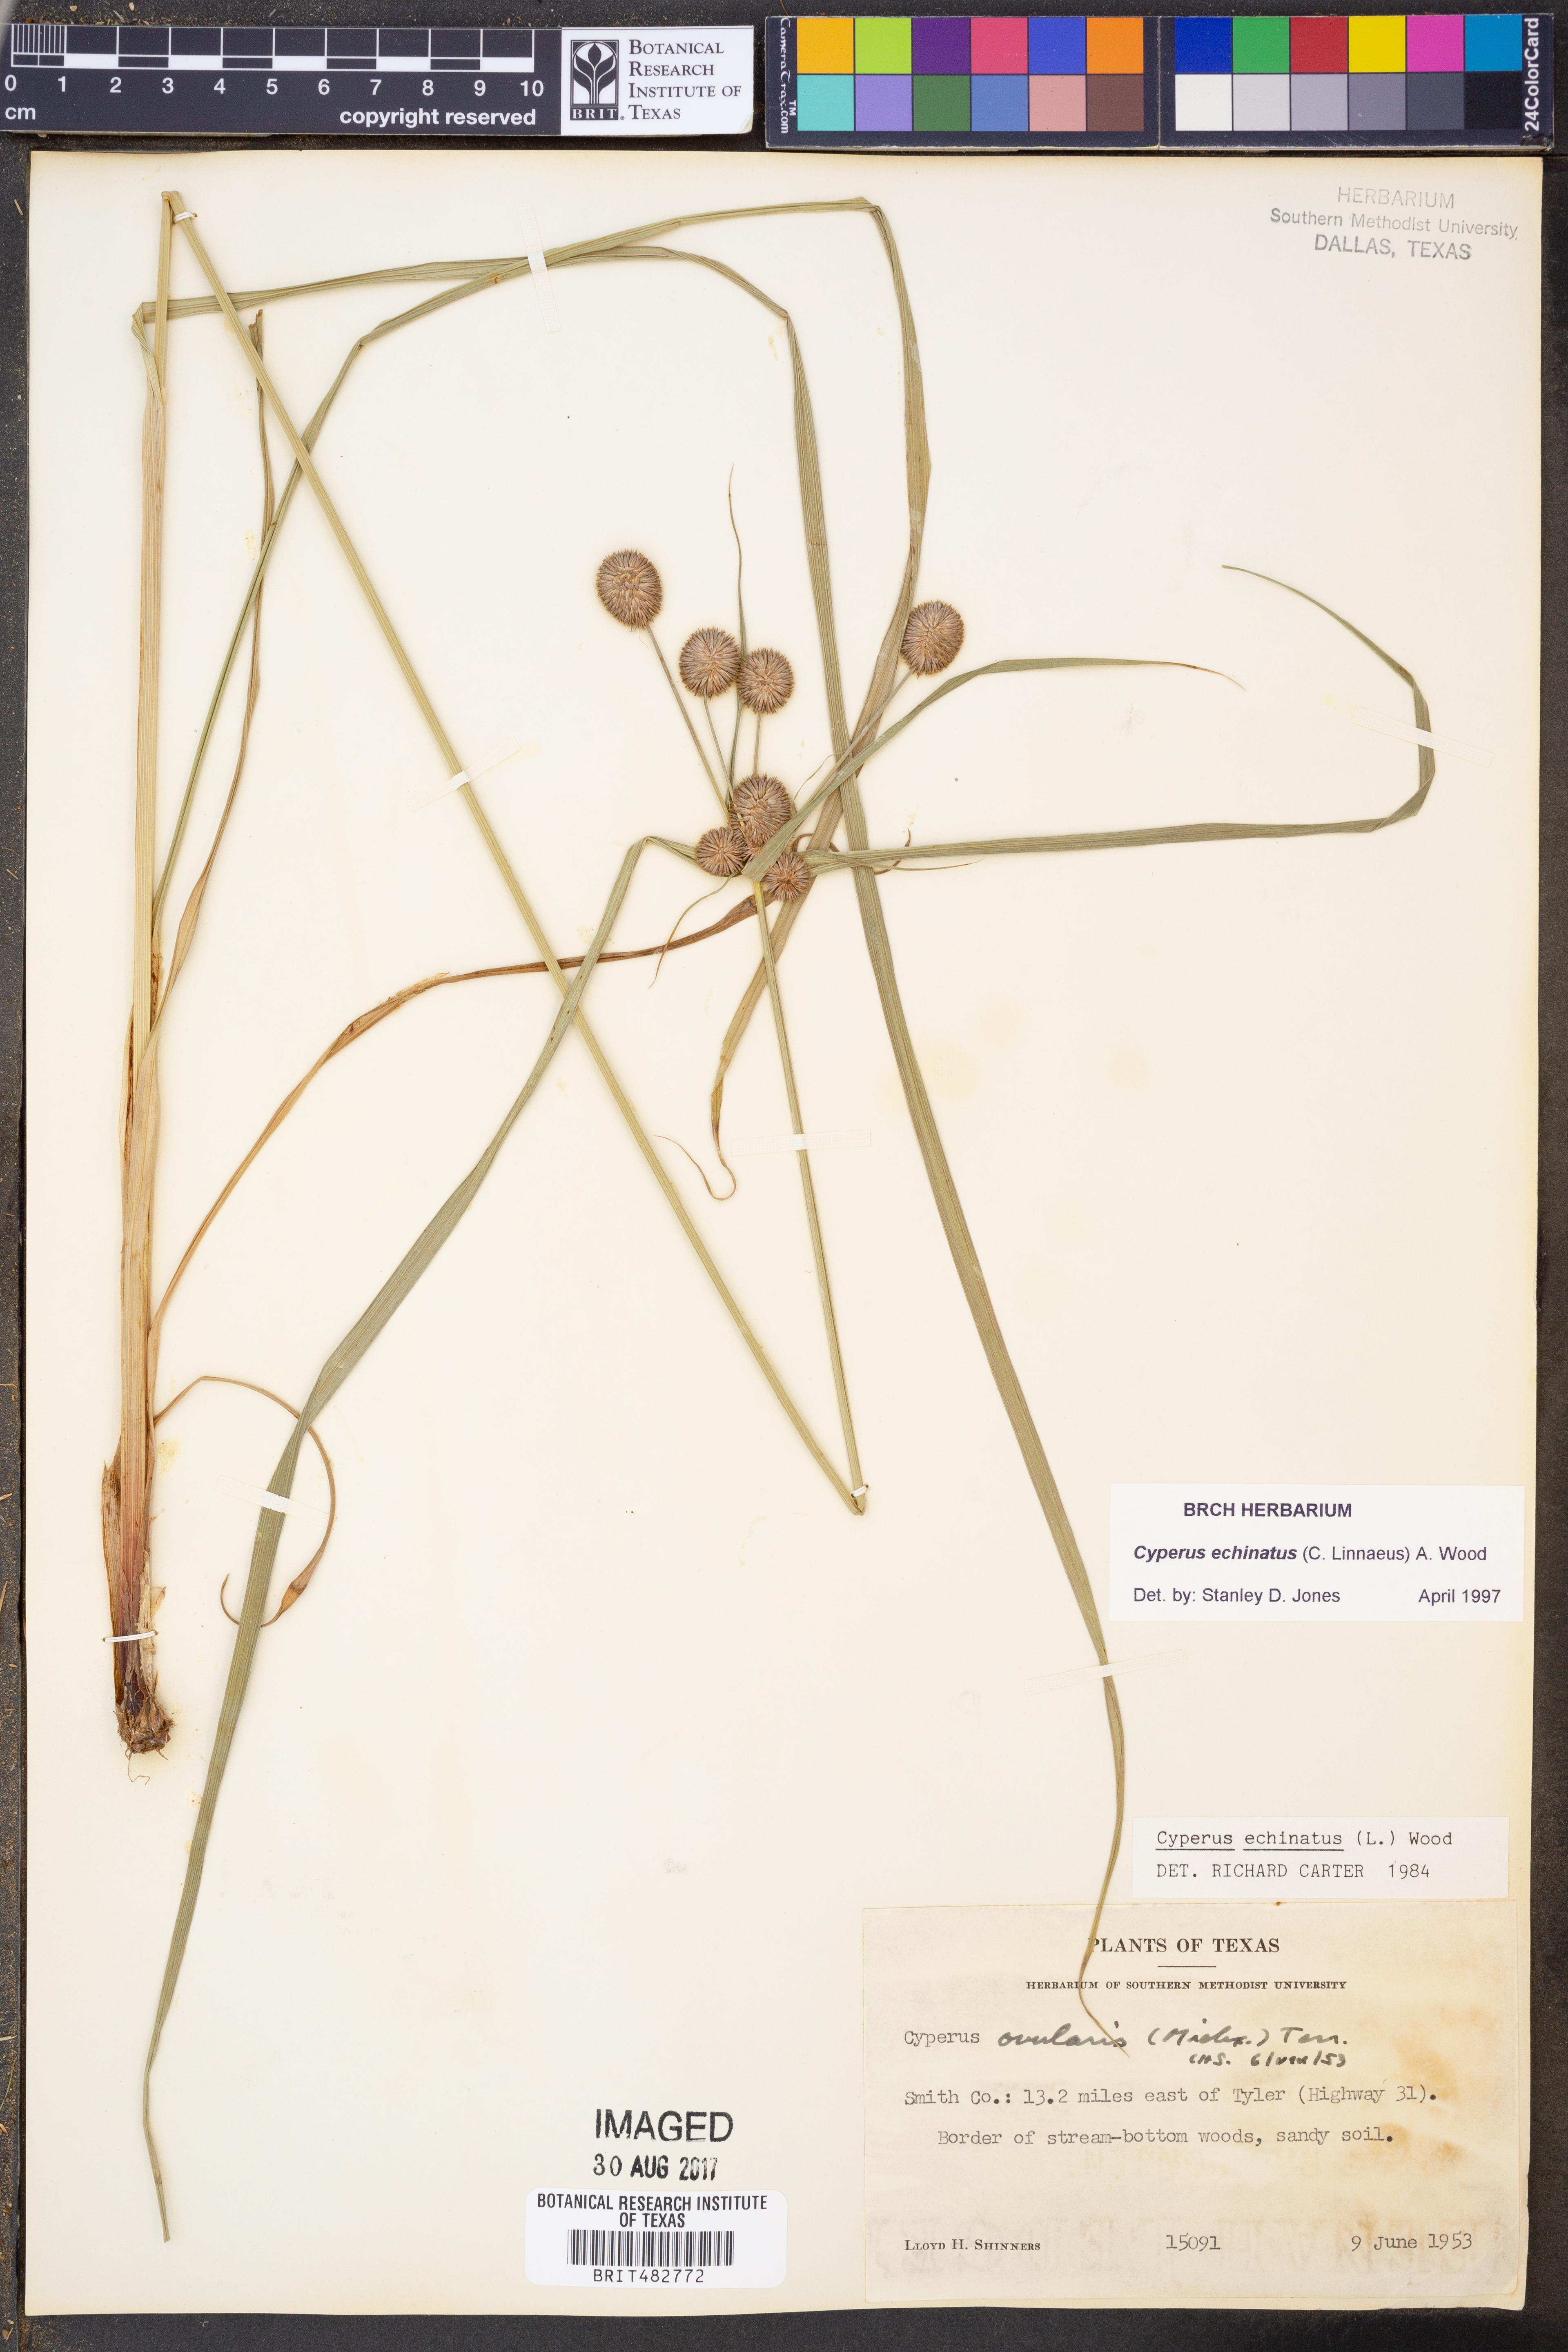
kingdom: Plantae
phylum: Tracheophyta
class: Liliopsida
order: Poales
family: Cyperaceae
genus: Cyperus
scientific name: Cyperus echinatus
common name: Teasel sedge
